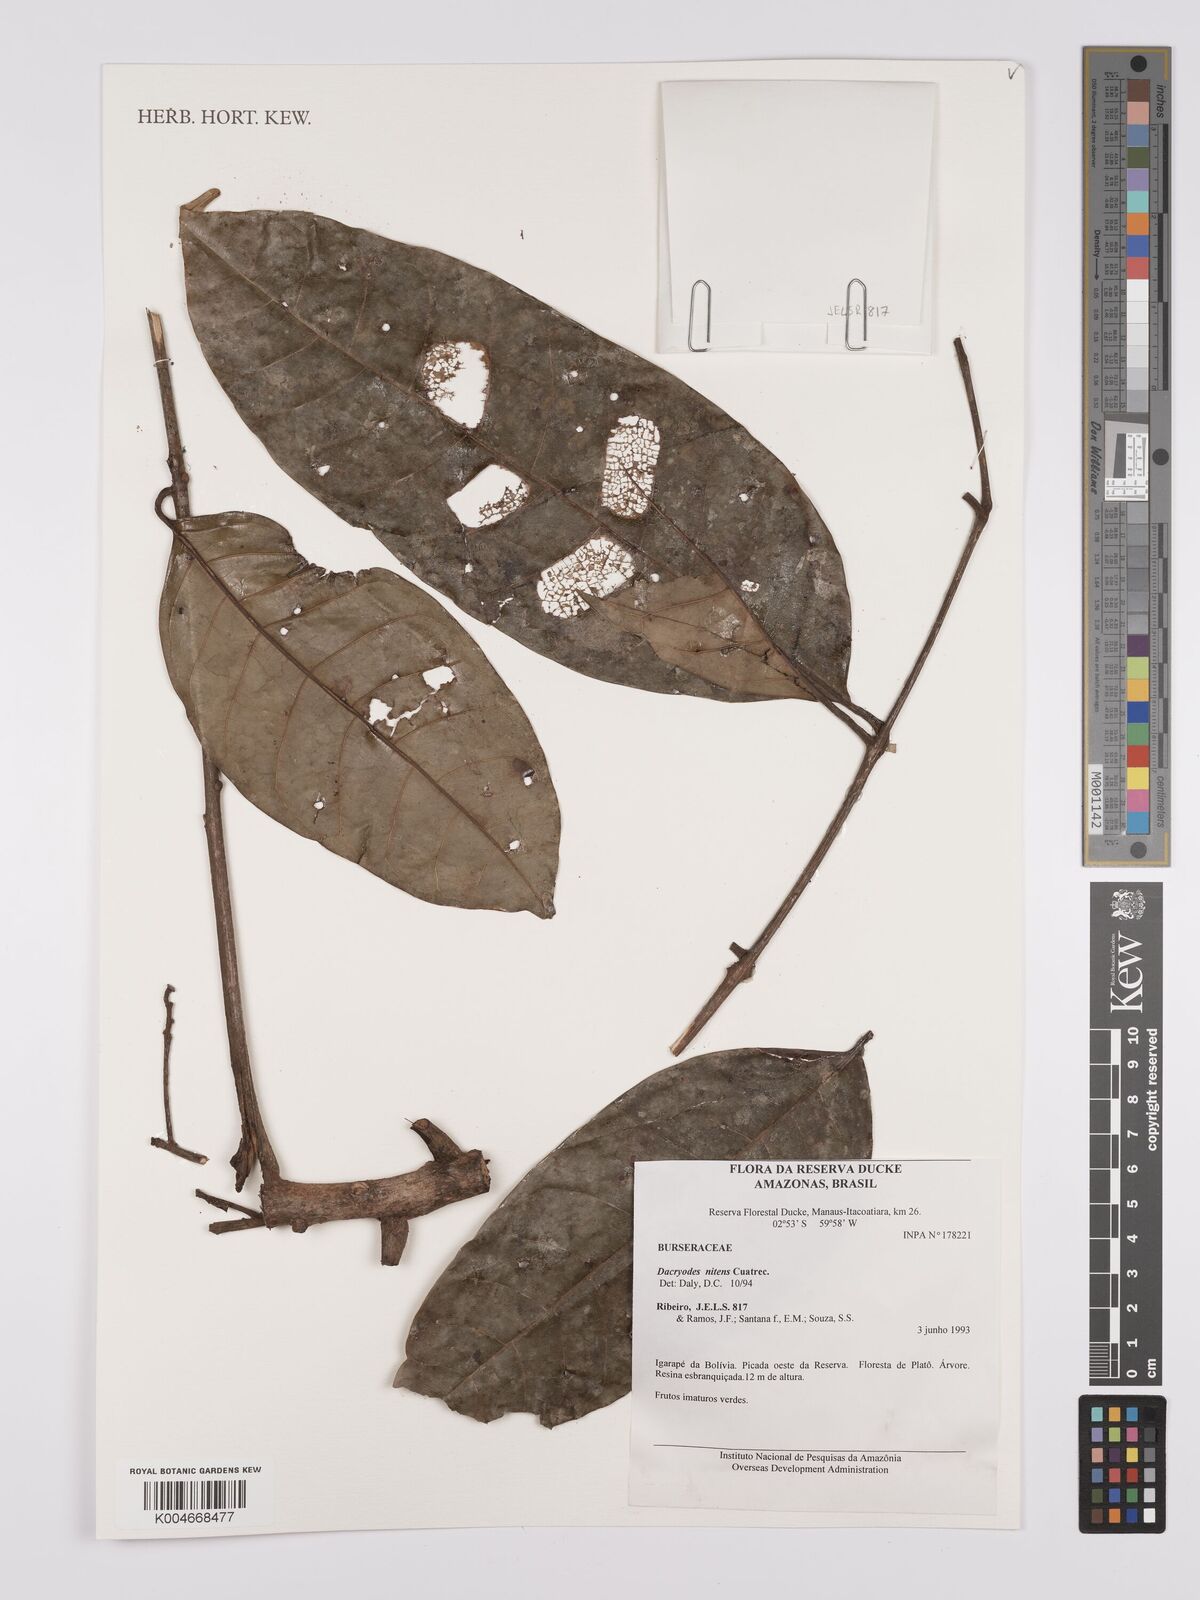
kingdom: Plantae
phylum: Tracheophyta
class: Magnoliopsida
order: Sapindales
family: Burseraceae
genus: Dacryodes
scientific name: Dacryodes nitens
